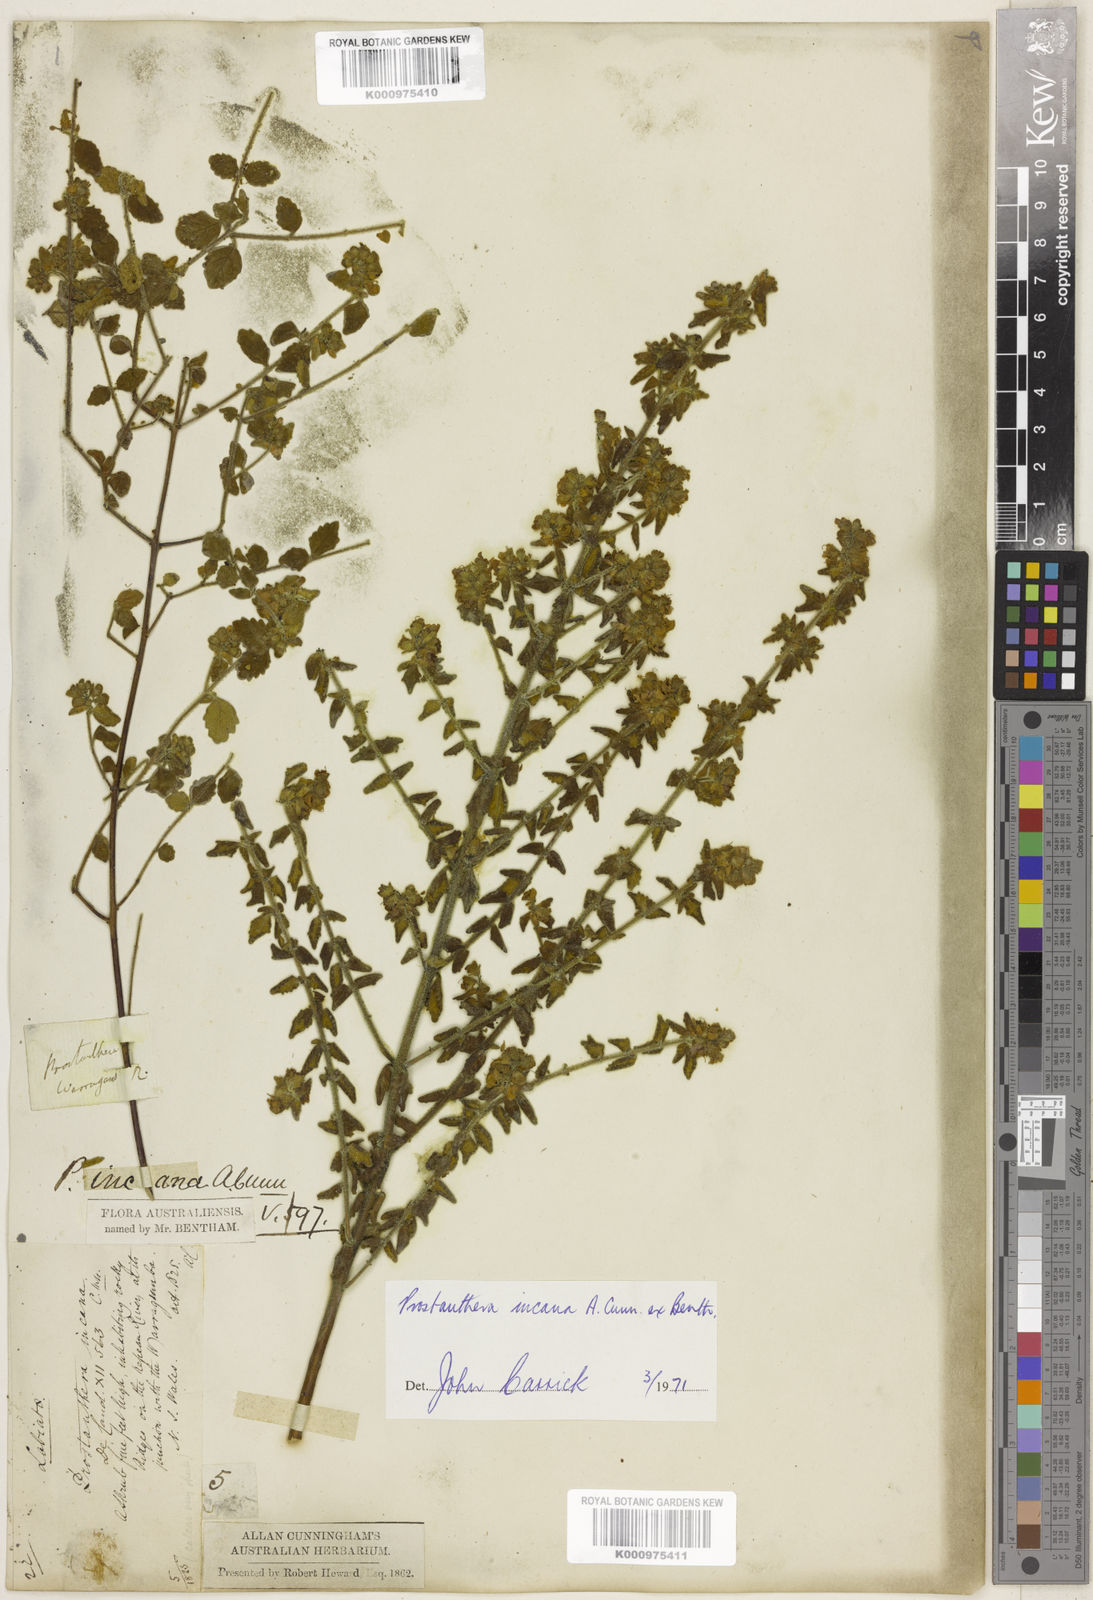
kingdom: Plantae
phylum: Tracheophyta
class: Magnoliopsida
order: Lamiales
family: Lamiaceae
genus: Prostanthera
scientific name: Prostanthera incana
